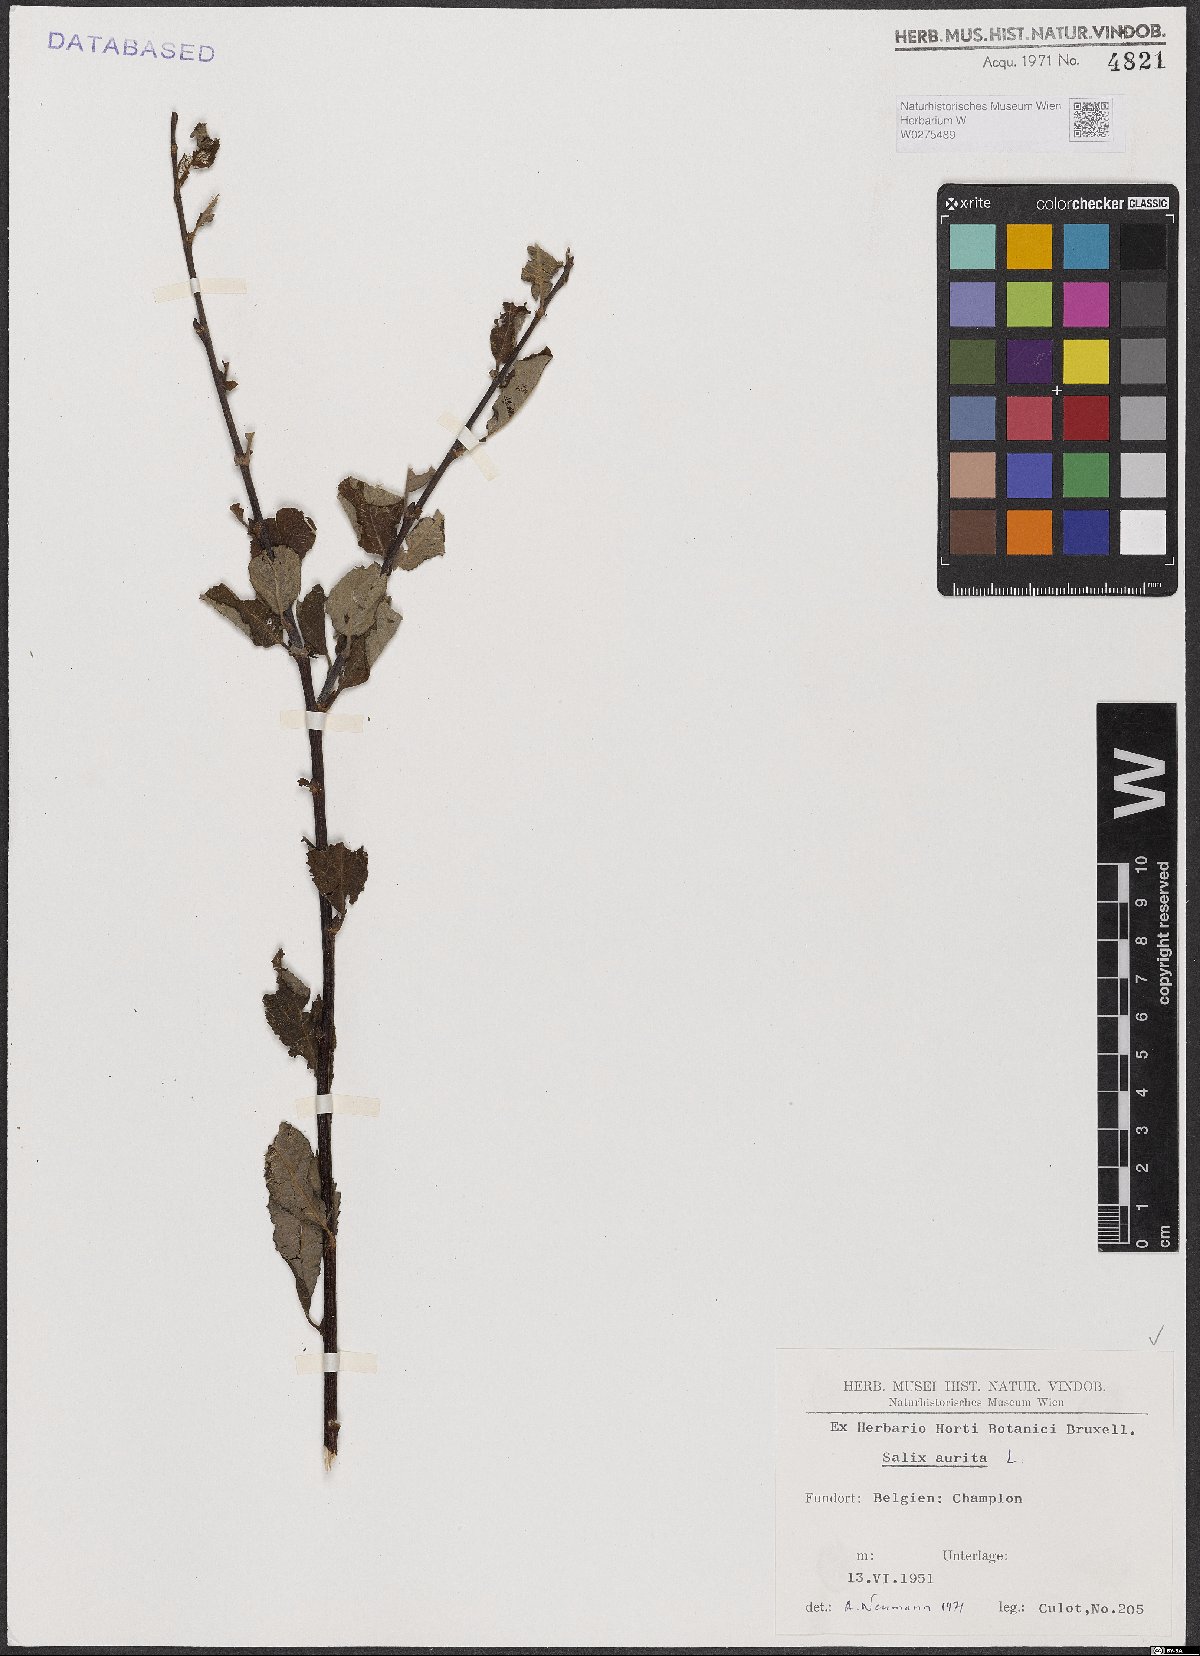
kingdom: Plantae
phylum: Tracheophyta
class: Magnoliopsida
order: Malpighiales
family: Salicaceae
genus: Salix
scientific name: Salix aurita
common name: Eared willow
